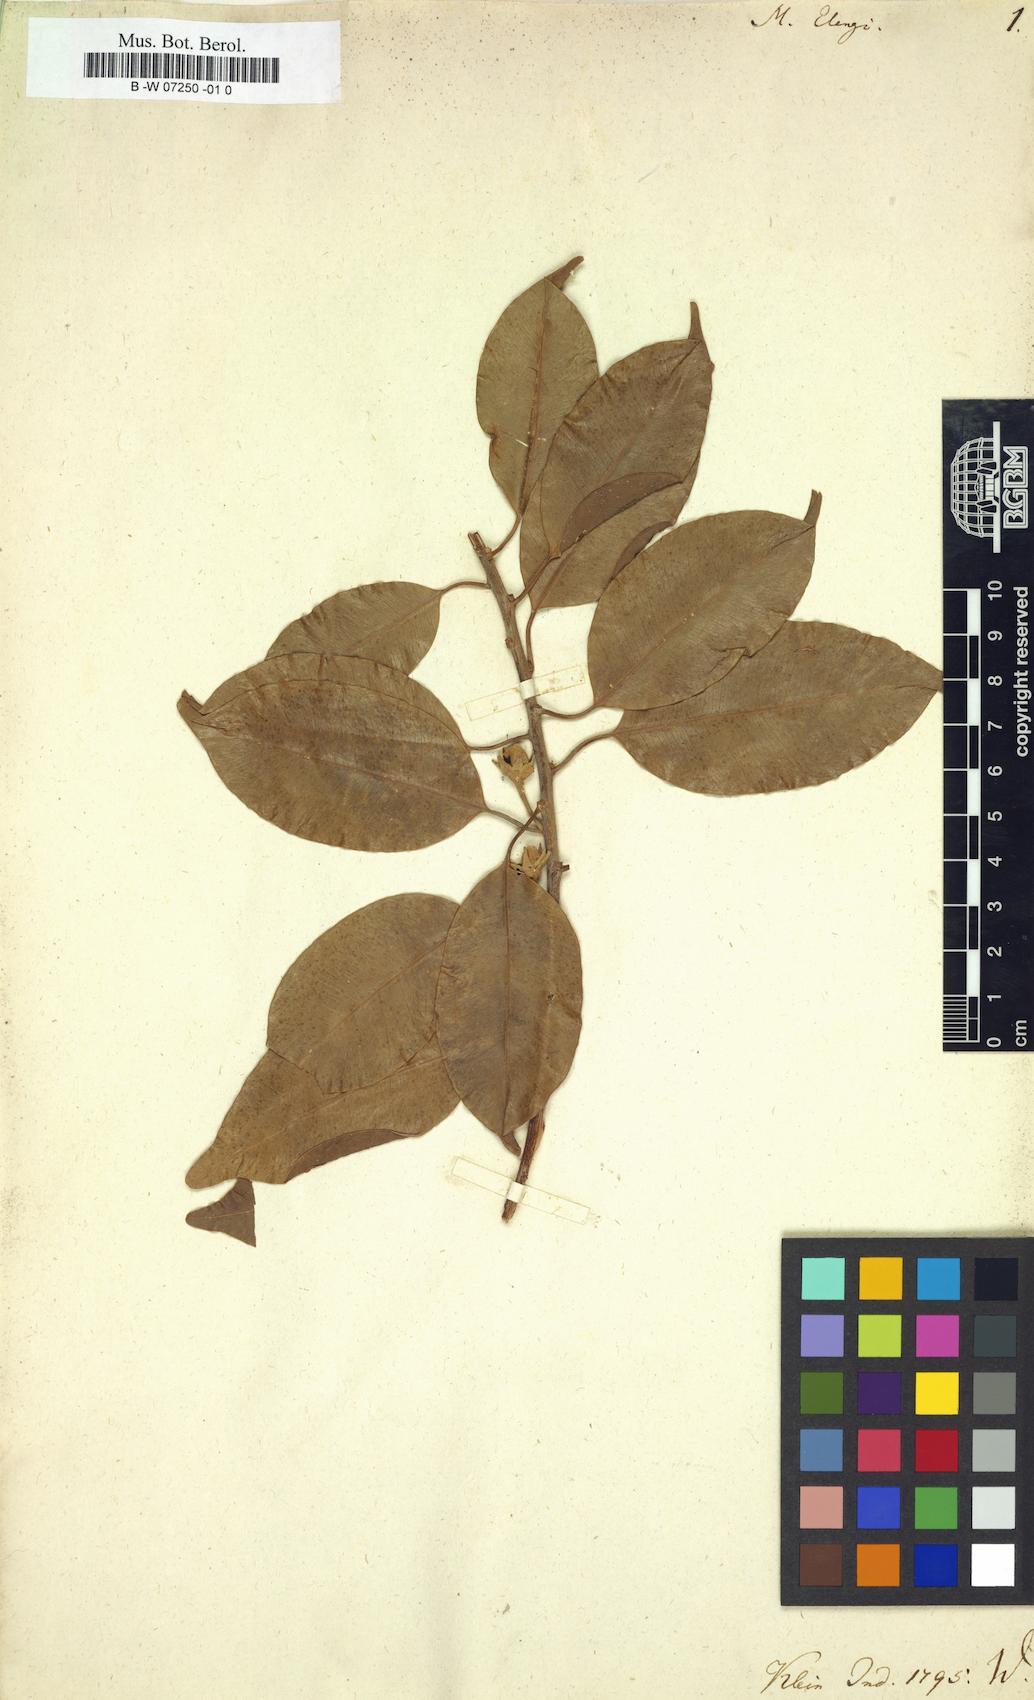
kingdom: Plantae
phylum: Tracheophyta
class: Magnoliopsida
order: Ericales
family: Sapotaceae
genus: Mimusops
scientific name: Mimusops elengi
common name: Spanish cherry
